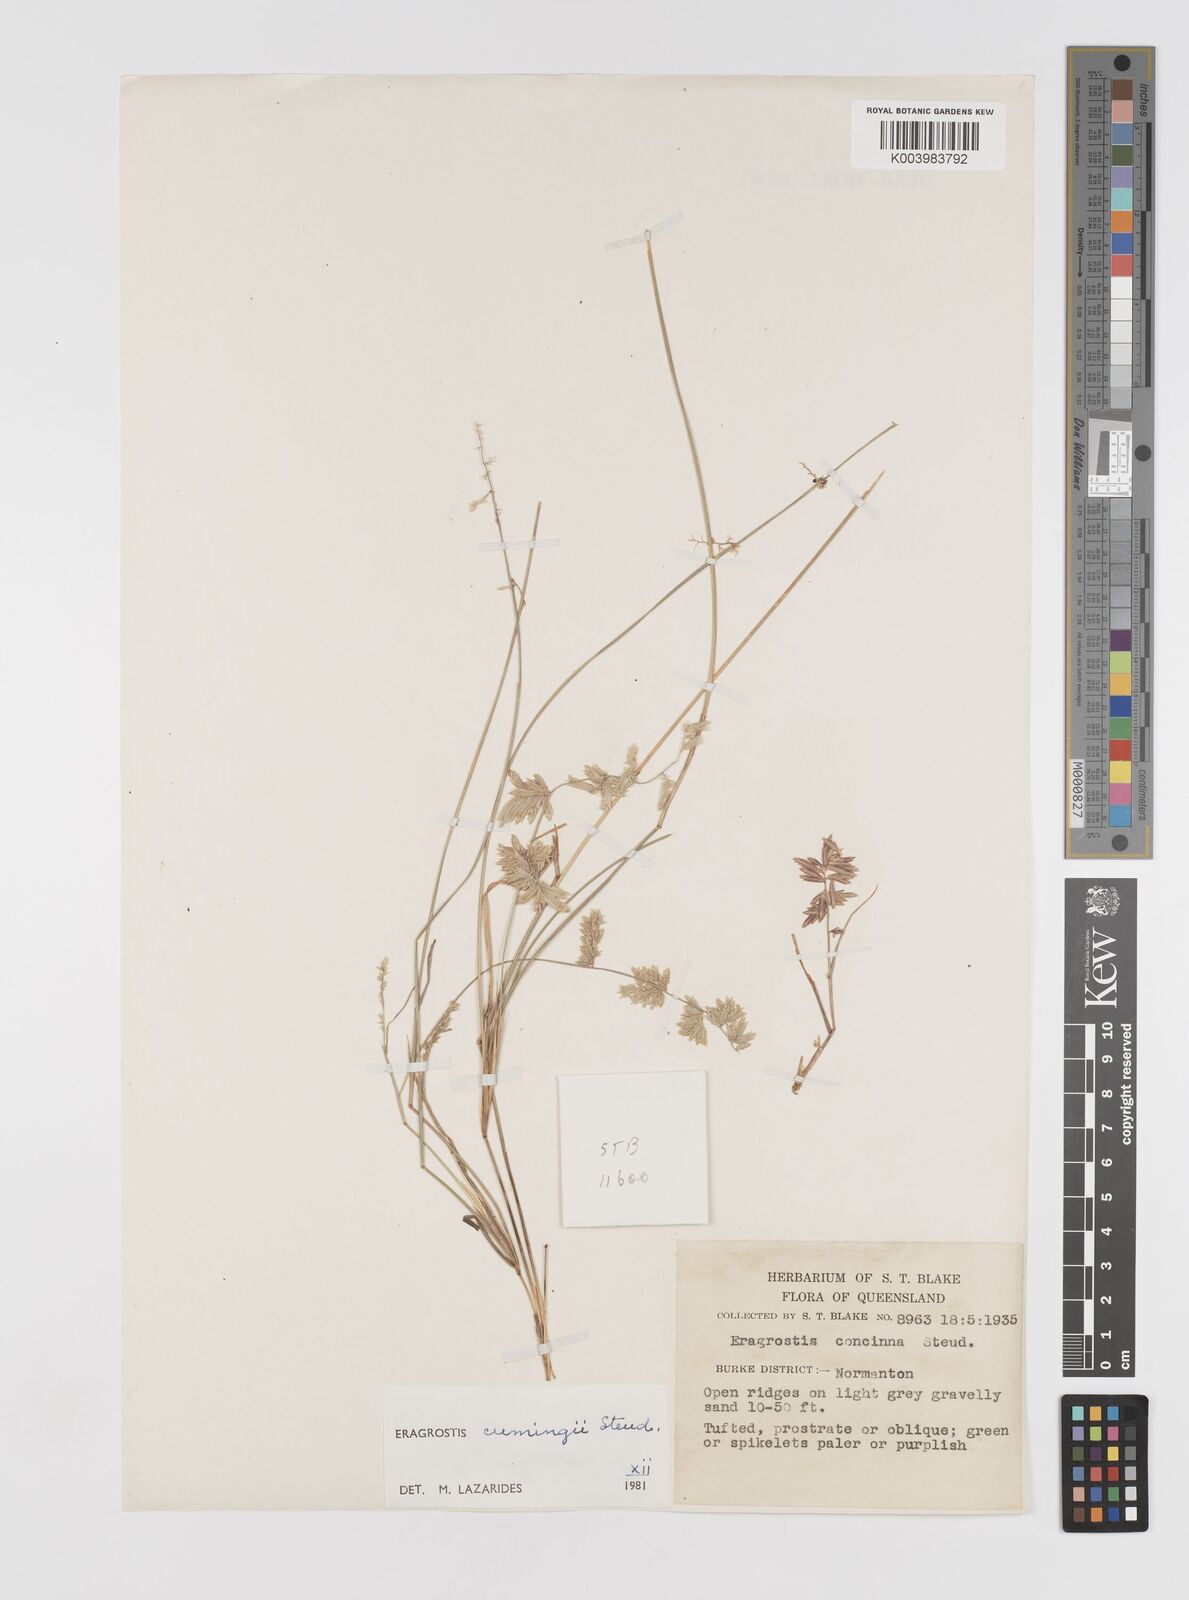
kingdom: Plantae
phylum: Tracheophyta
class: Liliopsida
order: Poales
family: Poaceae
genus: Eragrostis
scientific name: Eragrostis cumingii
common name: Cuming's lovegrass
